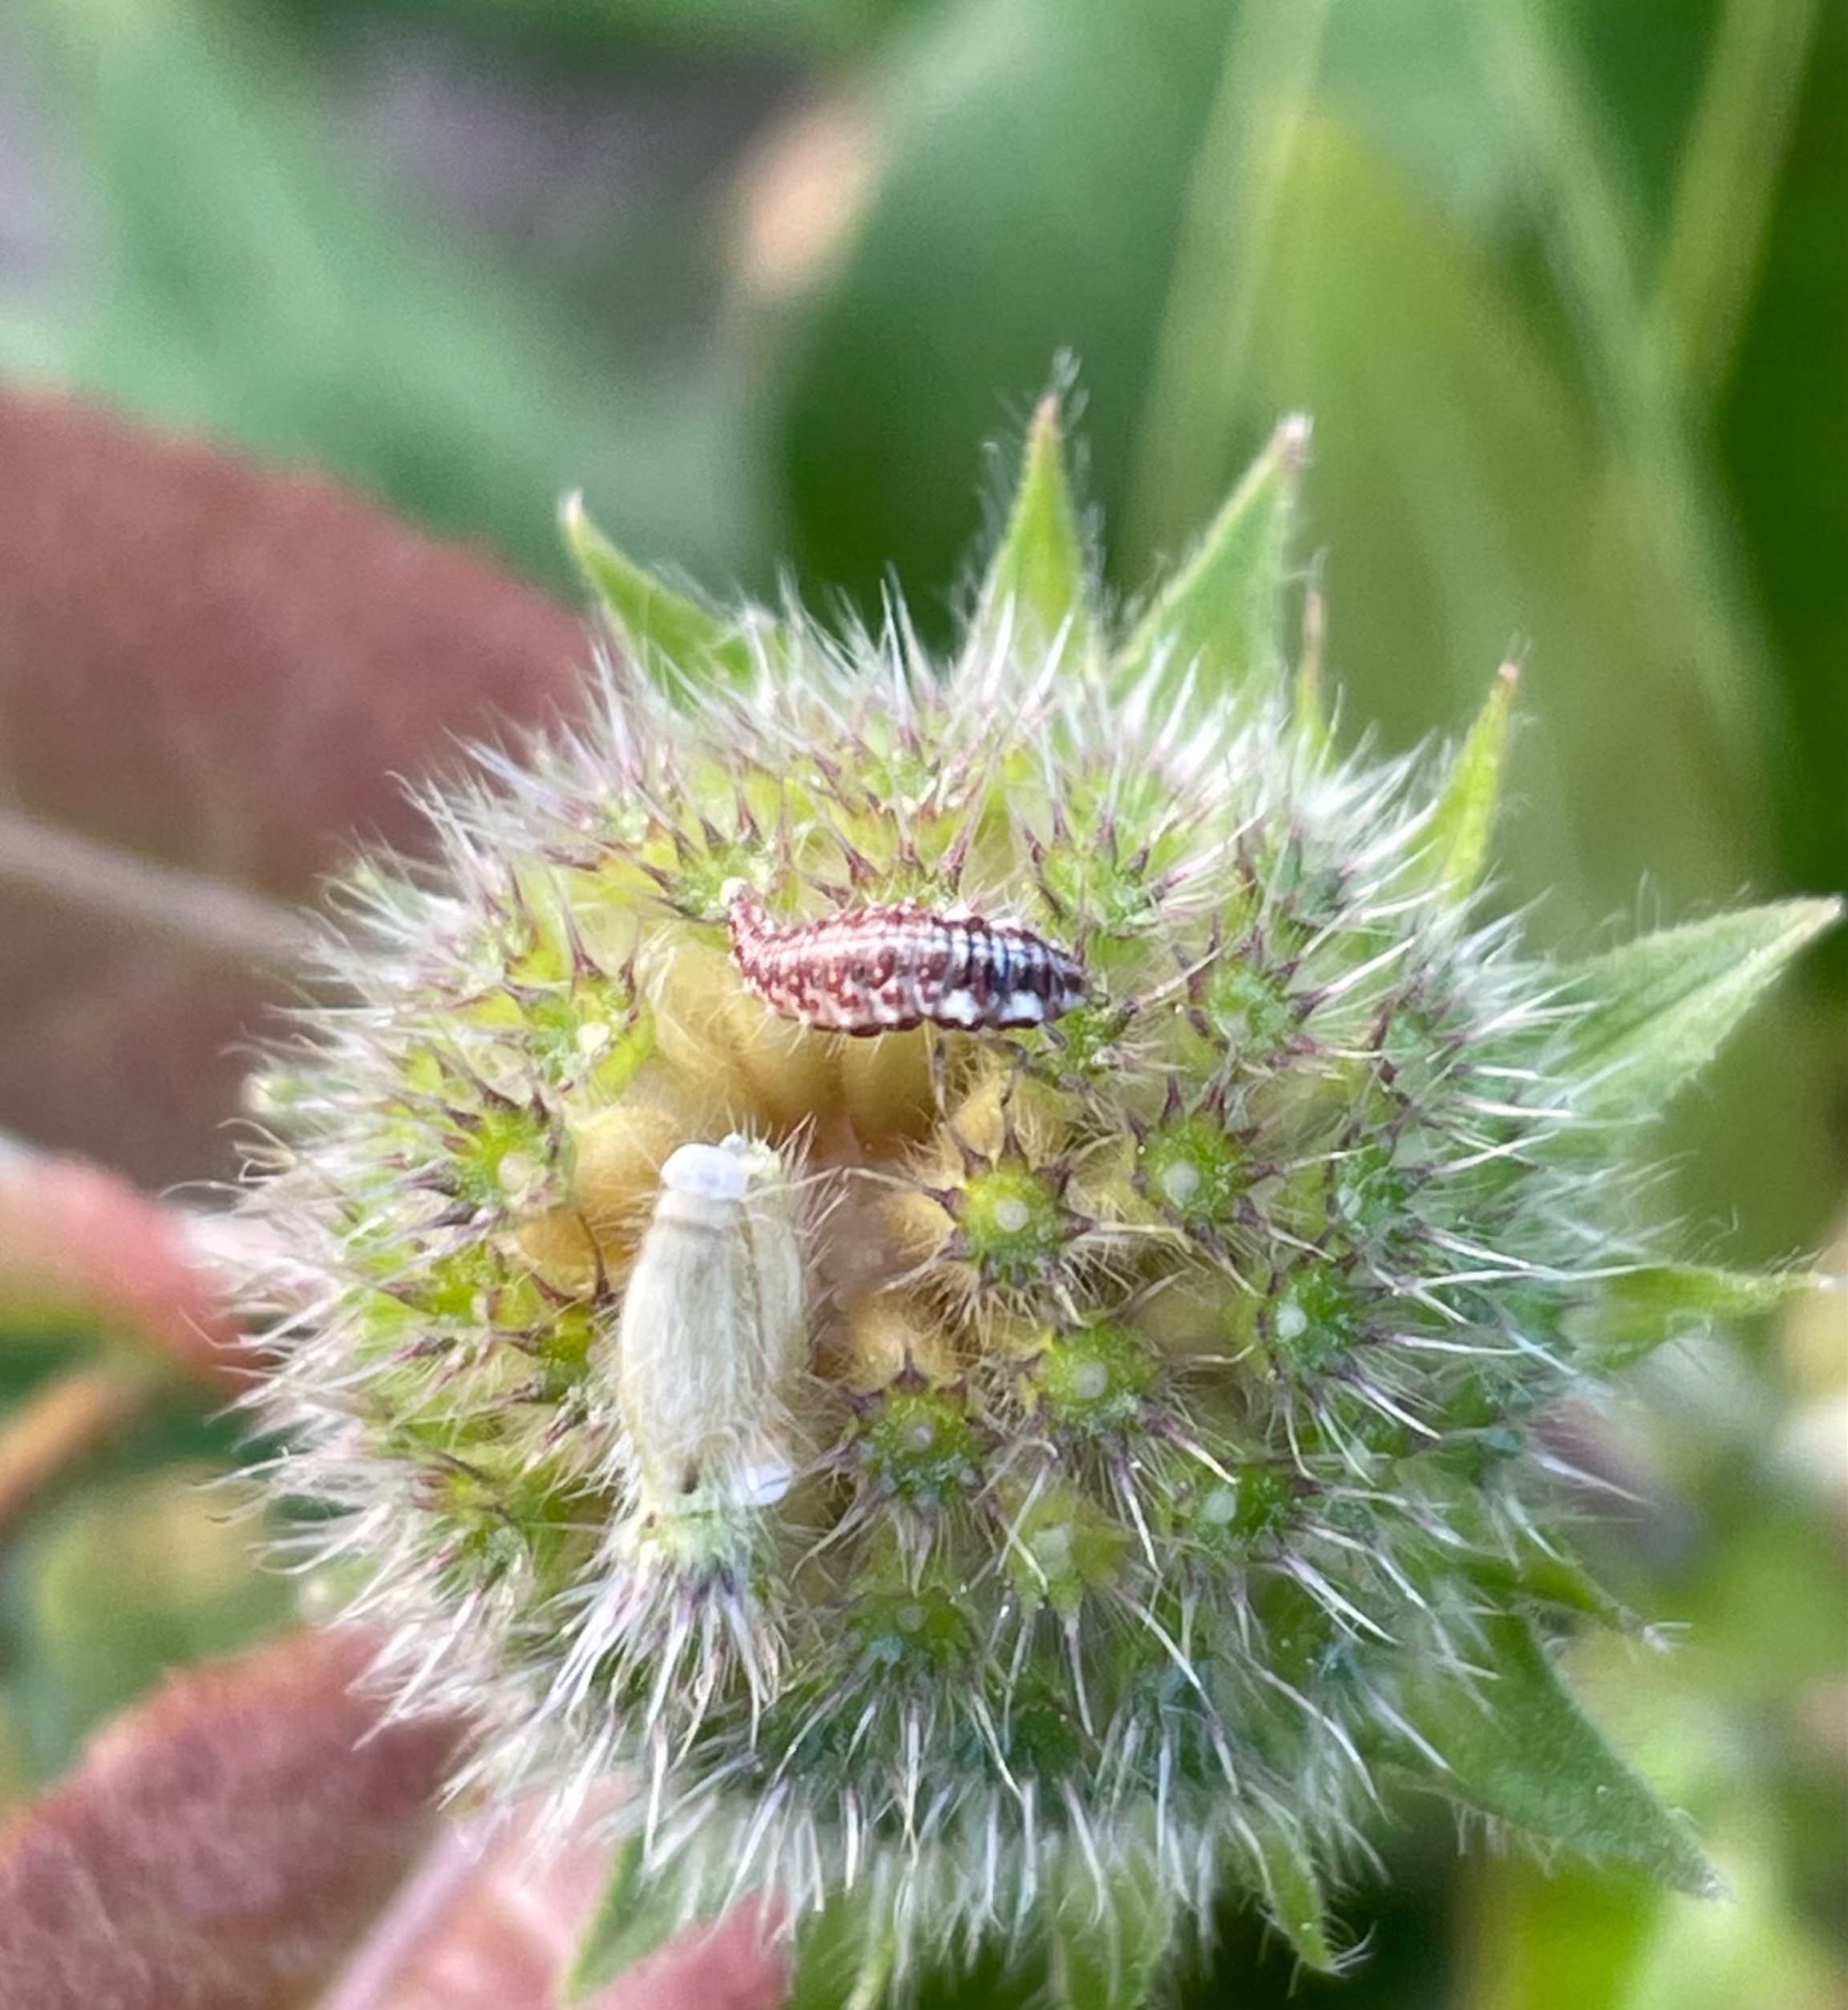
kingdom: Animalia
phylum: Arthropoda
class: Insecta
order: Neuroptera
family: Chrysopidae
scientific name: Chrysopidae
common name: Guldøjer
